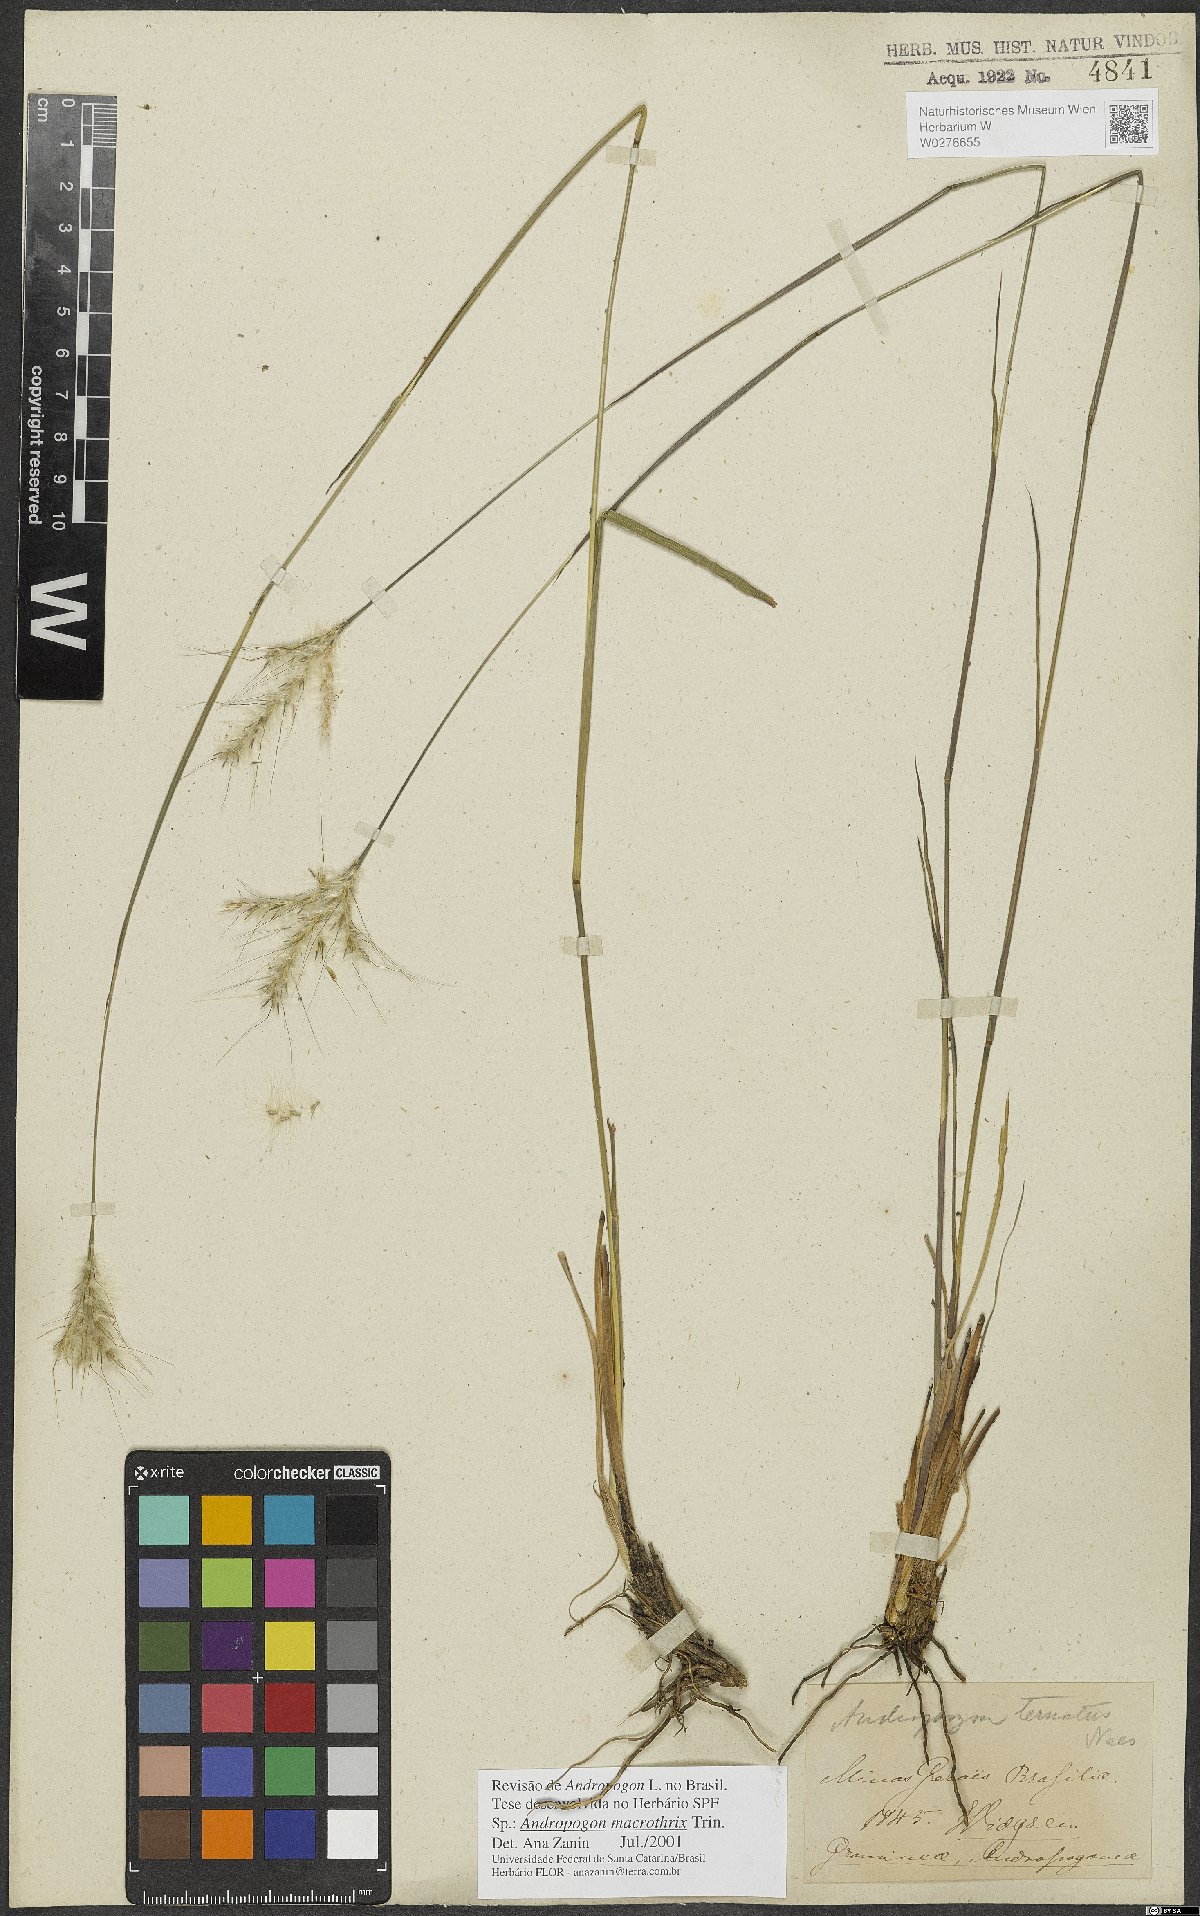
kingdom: Plantae
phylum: Tracheophyta
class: Liliopsida
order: Poales
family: Poaceae
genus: Andropogon
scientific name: Andropogon macrothrix
